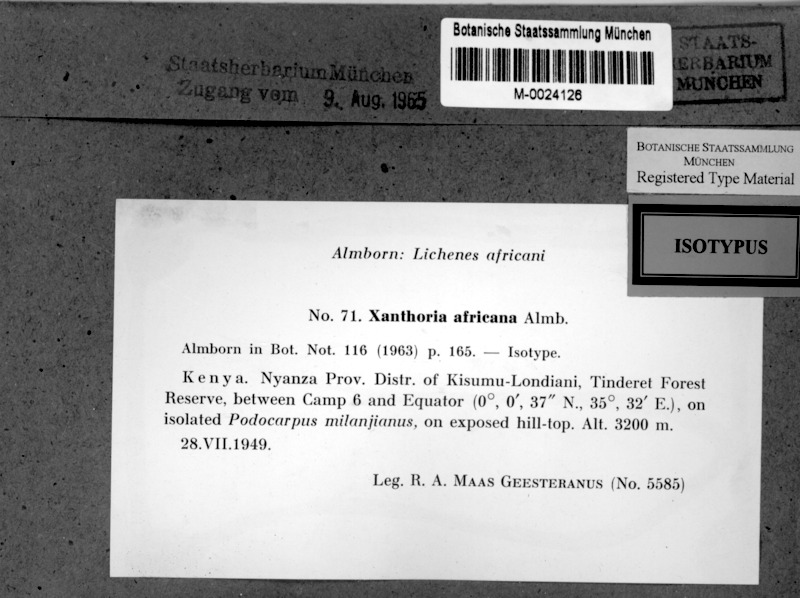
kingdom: Fungi
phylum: Ascomycota
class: Lecanoromycetes
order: Teloschistales
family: Teloschistaceae
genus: Dufourea
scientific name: Dufourea africana
